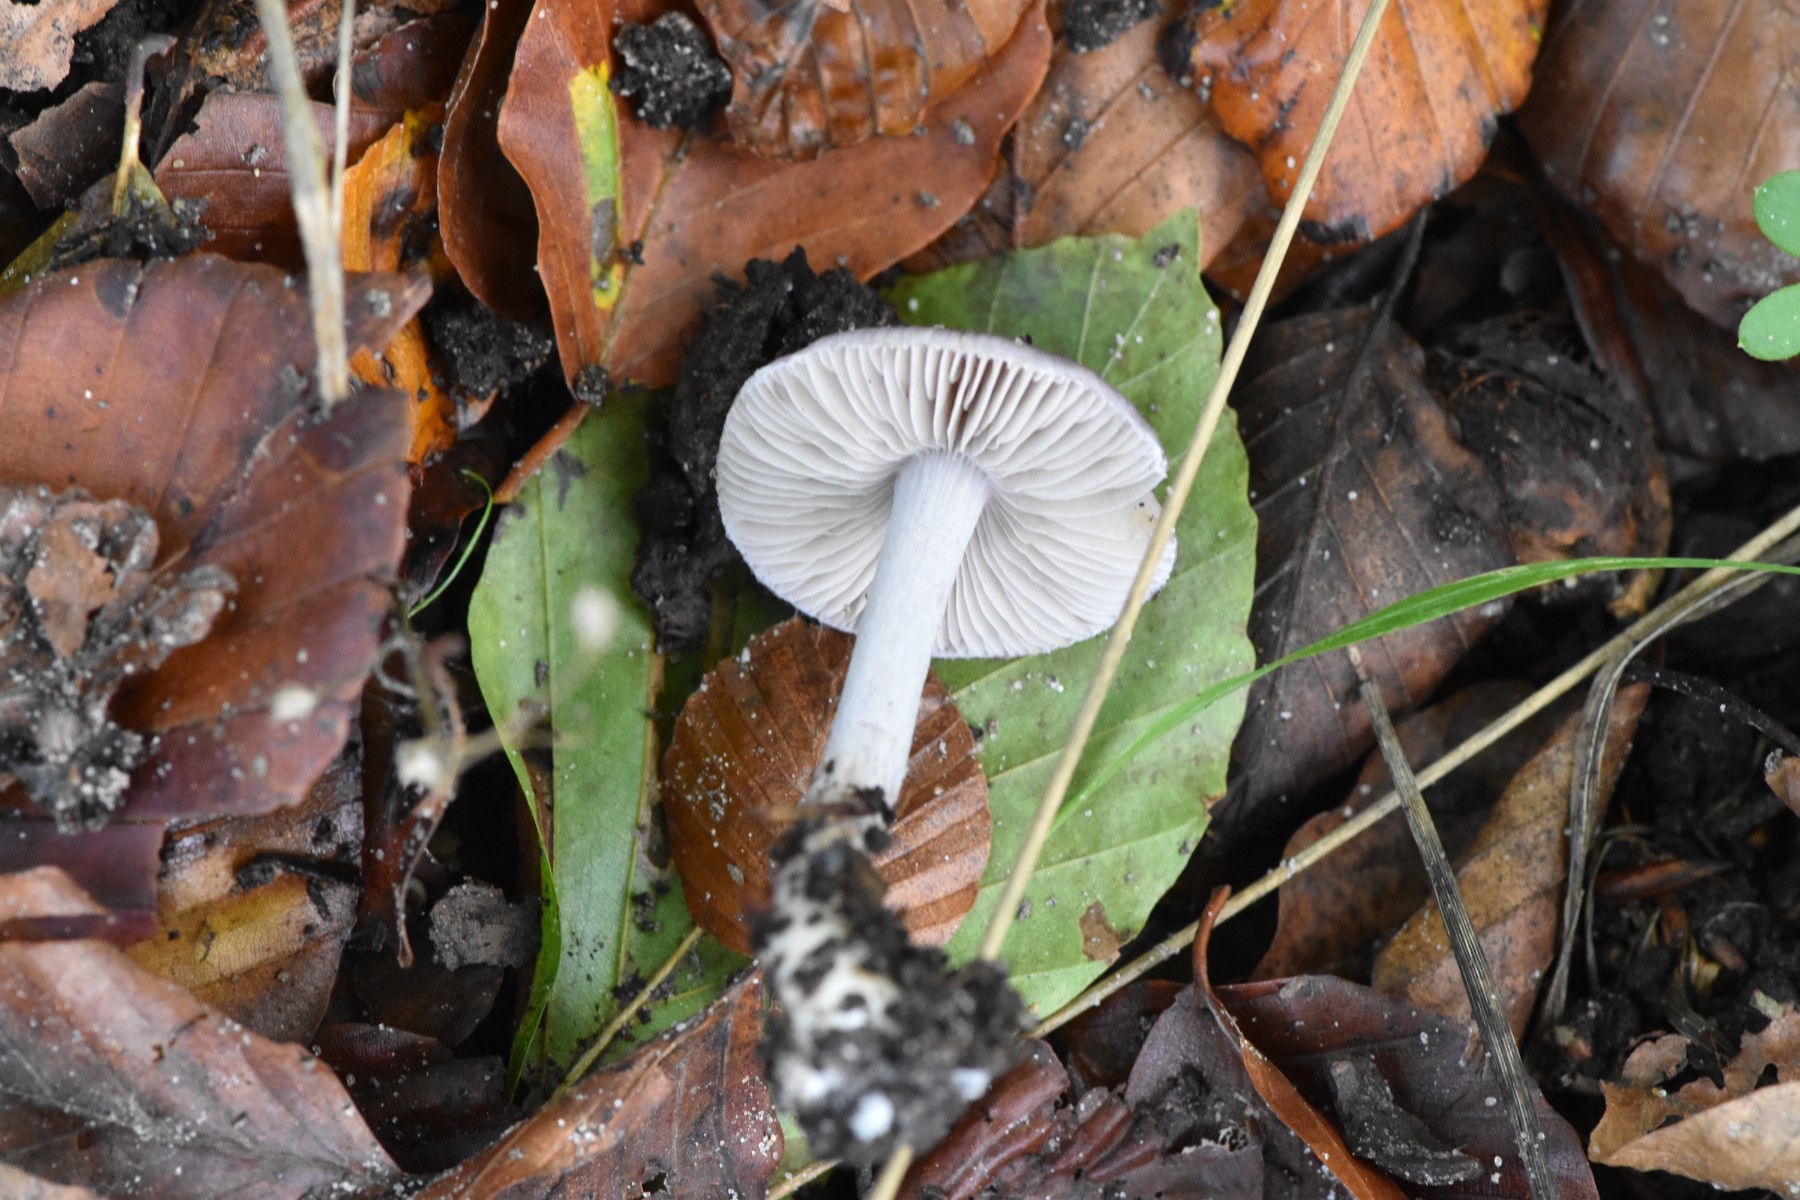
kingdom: Fungi
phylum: Basidiomycota
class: Agaricomycetes
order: Agaricales
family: Inocybaceae
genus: Inocybe
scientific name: Inocybe geophylla
